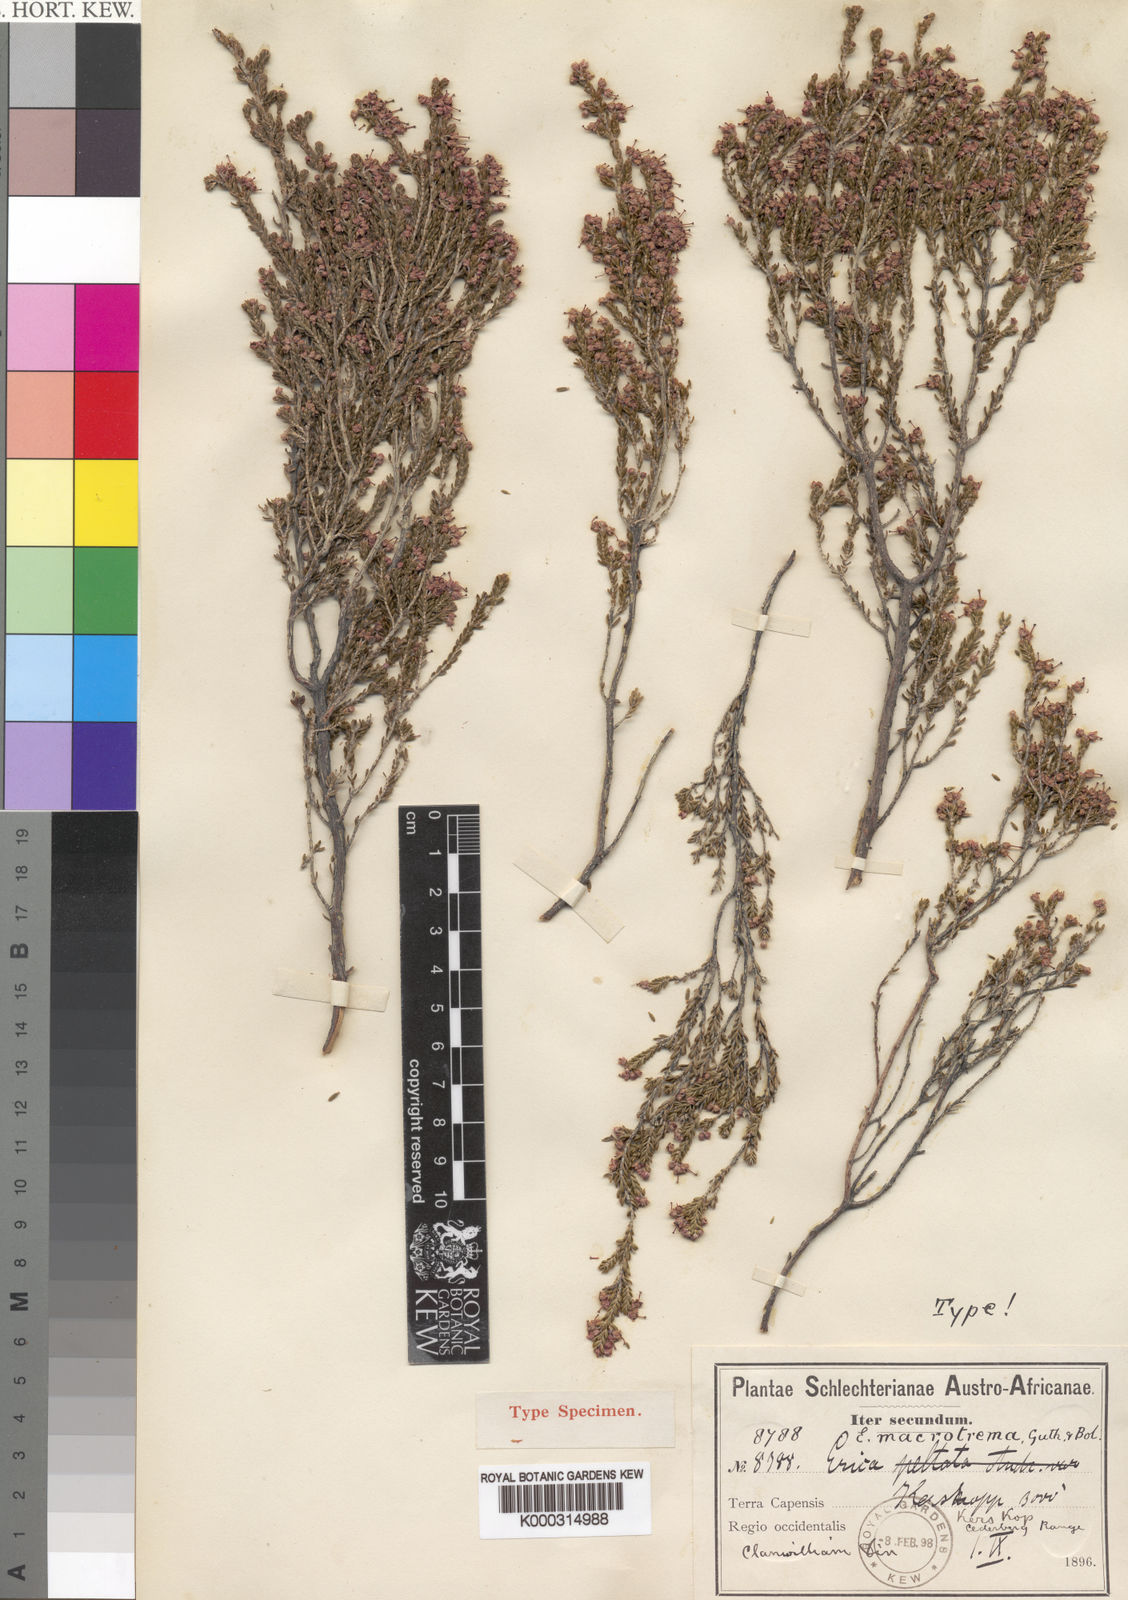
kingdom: Plantae
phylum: Tracheophyta
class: Magnoliopsida
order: Ericales
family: Ericaceae
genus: Erica
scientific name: Erica macrotrema
